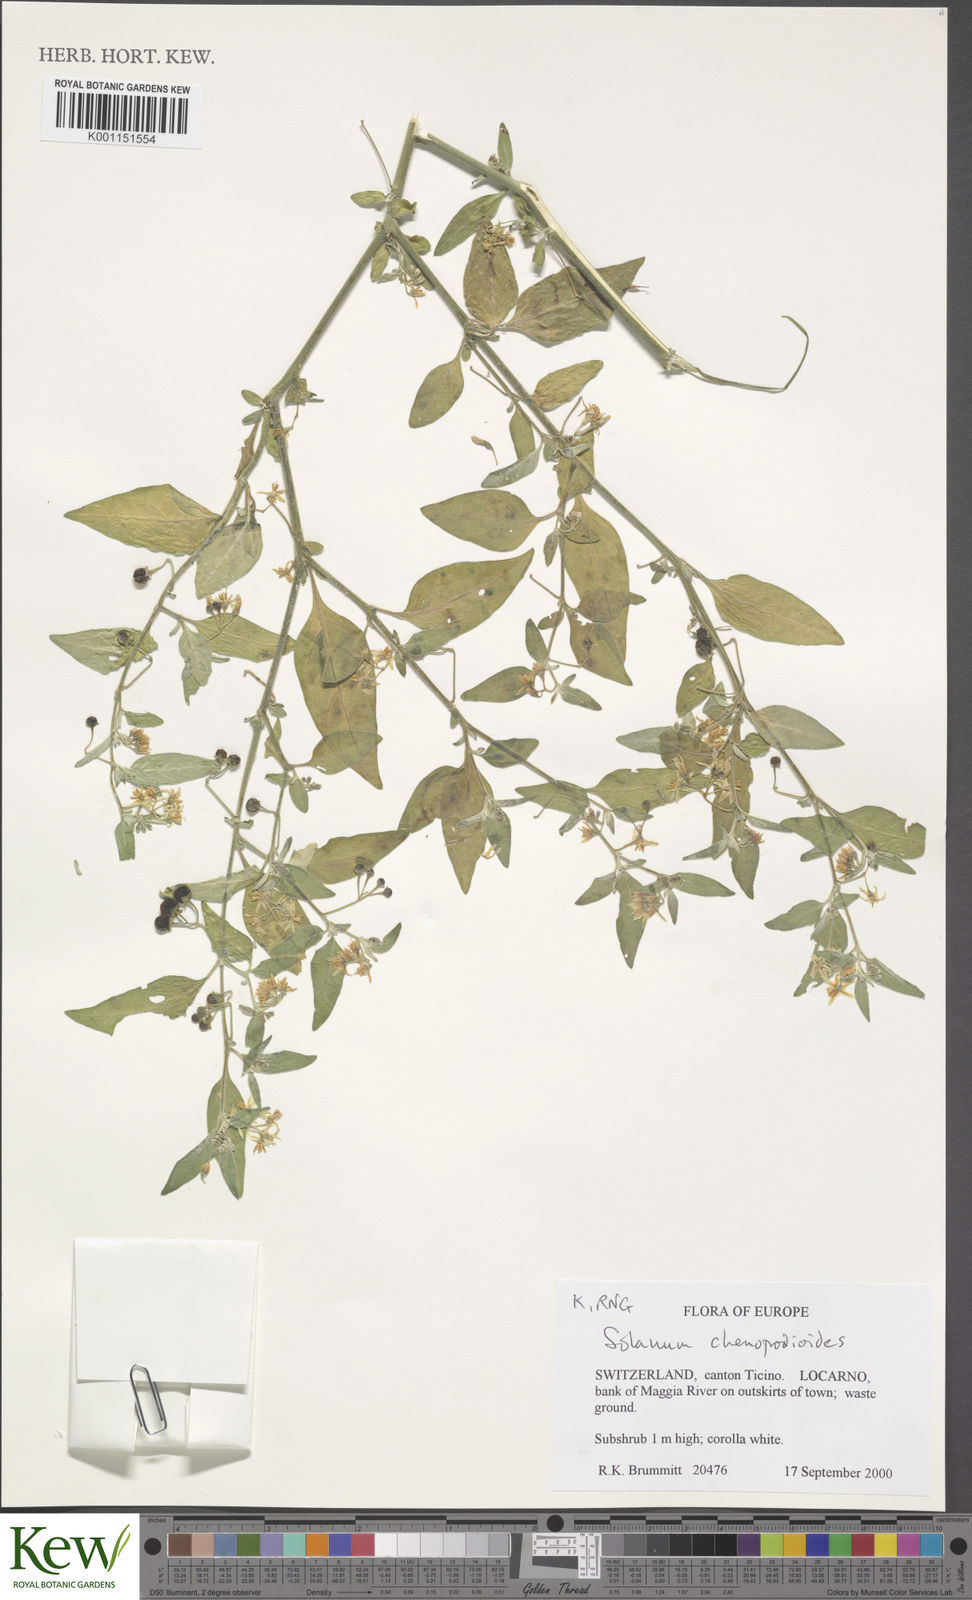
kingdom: Plantae
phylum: Tracheophyta
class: Magnoliopsida
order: Solanales
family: Solanaceae
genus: Solanum
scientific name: Solanum chenopodioides
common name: Tall nightshade
